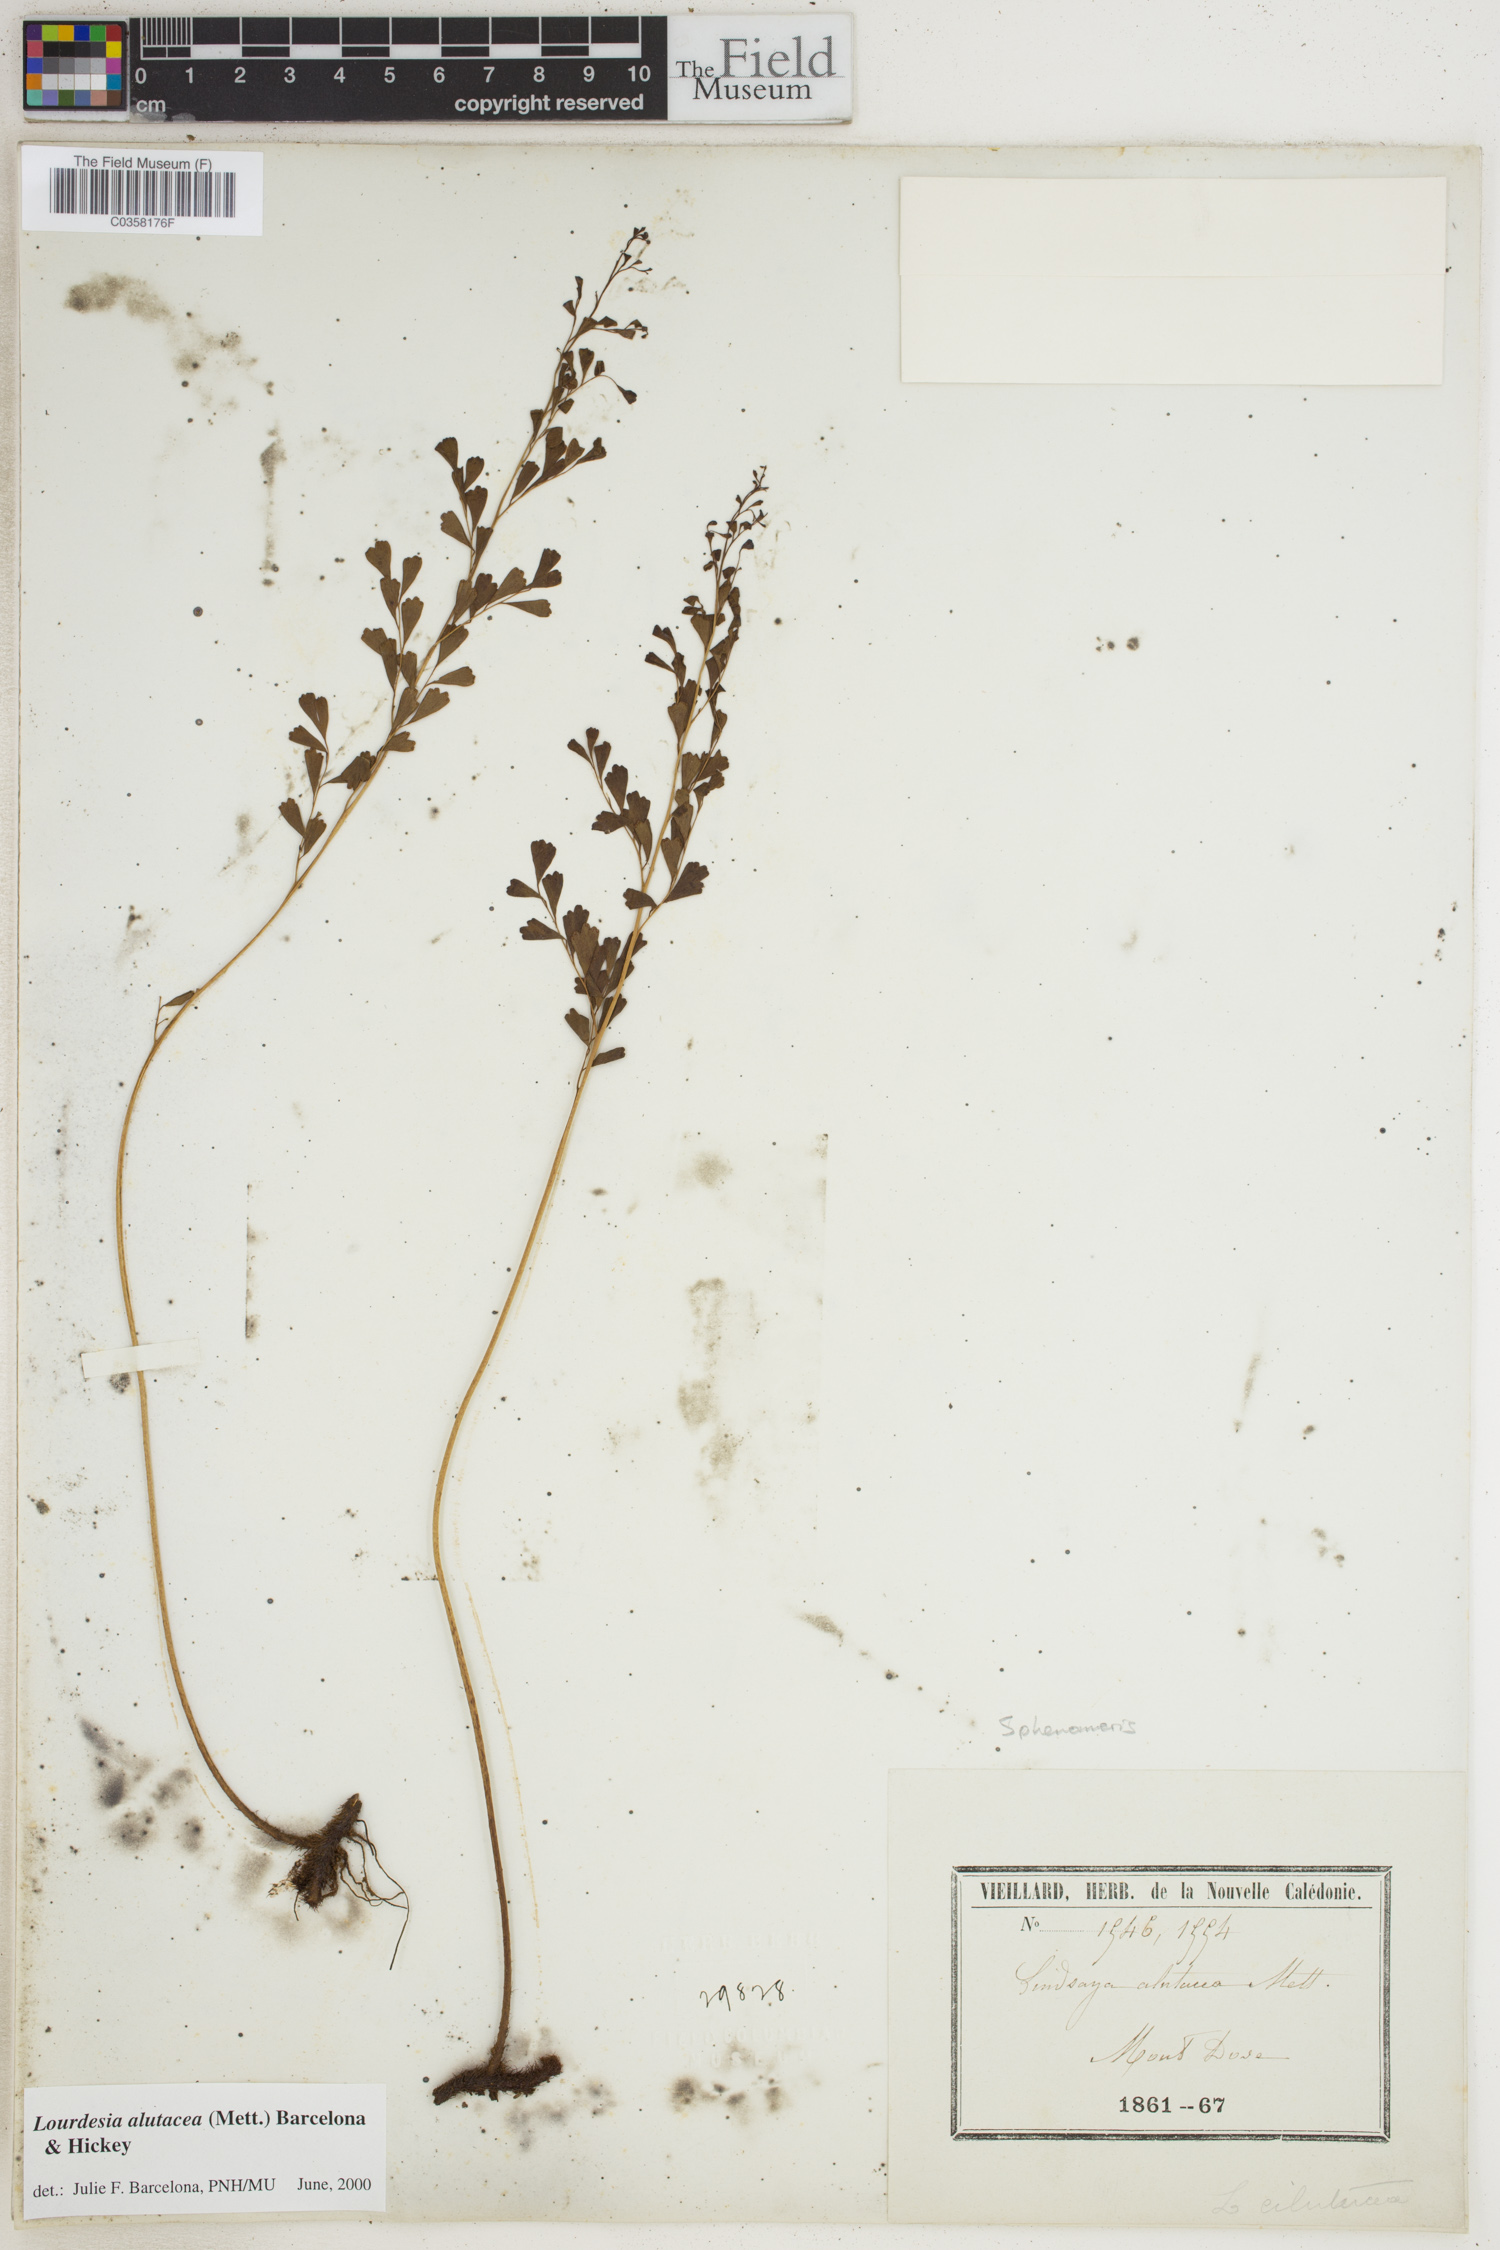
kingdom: Plantae
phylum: Tracheophyta
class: Polypodiopsida
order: Polypodiales
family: Lindsaeaceae
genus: Odontosoria
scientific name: Odontosoria alutacea
